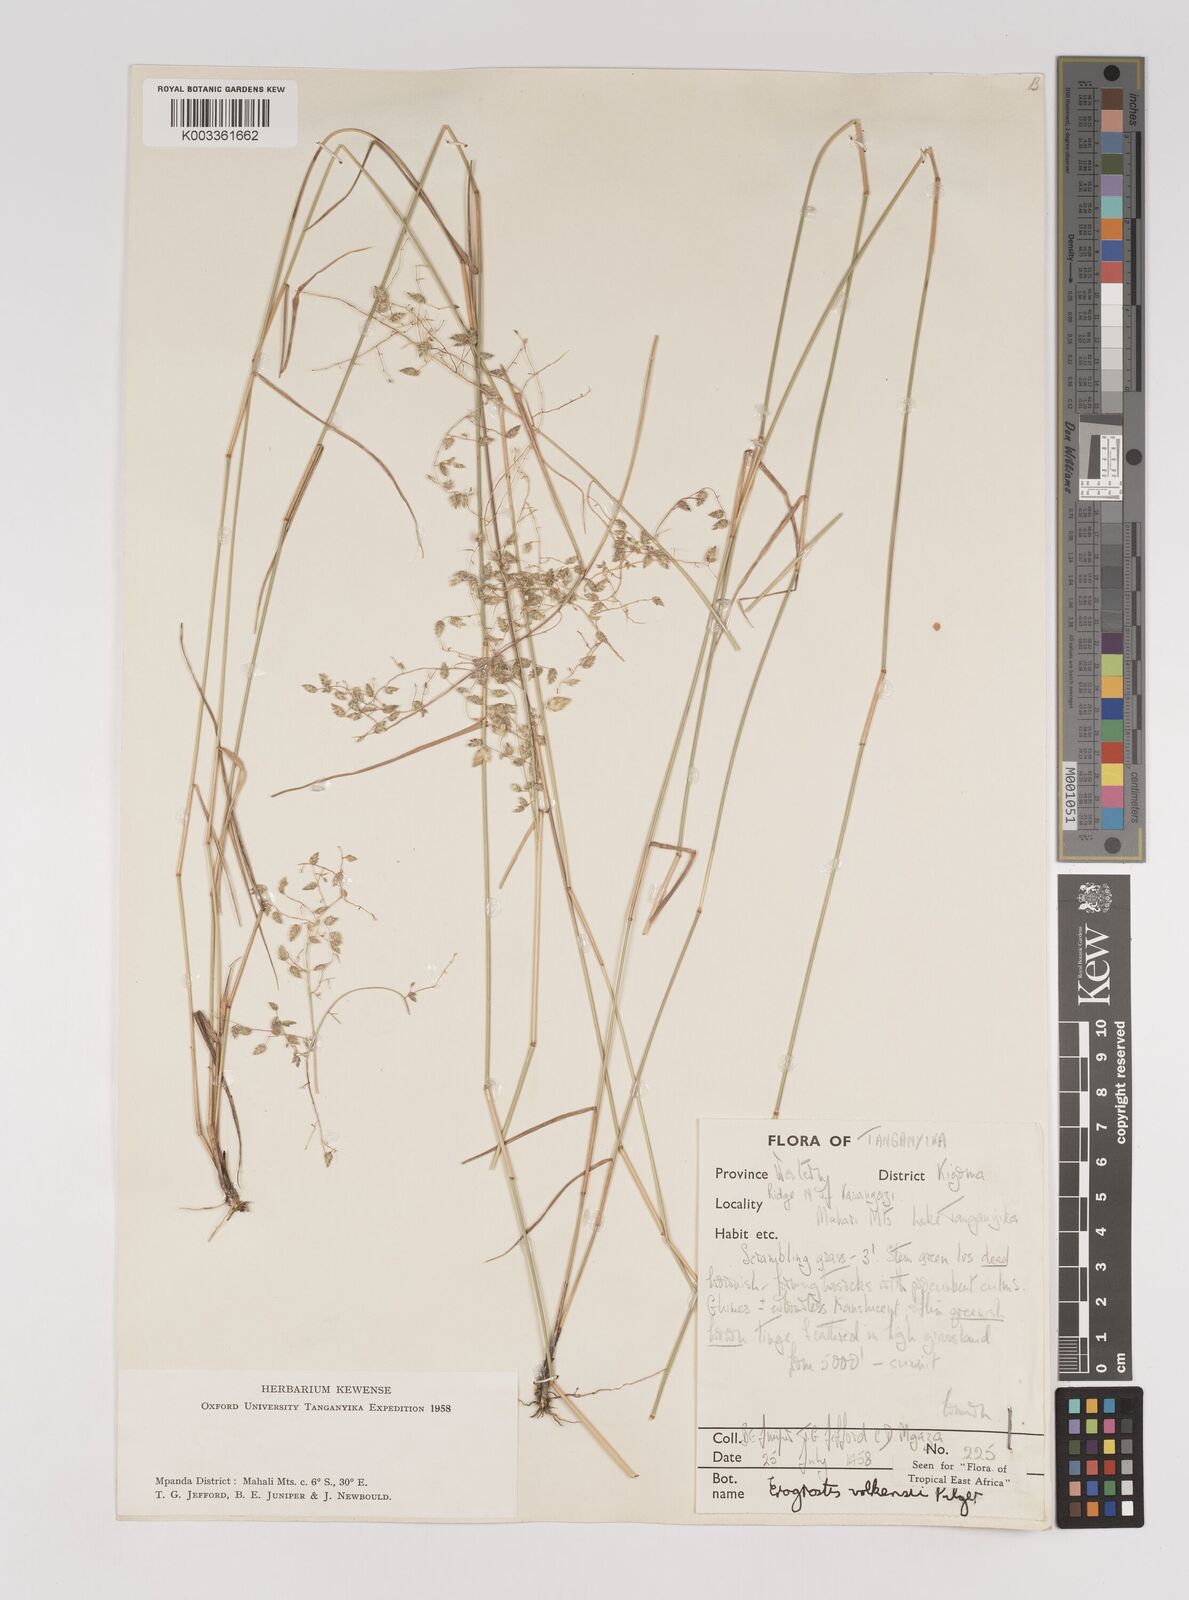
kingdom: Plantae
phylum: Tracheophyta
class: Liliopsida
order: Poales
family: Poaceae
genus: Eragrostis
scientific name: Eragrostis volkensii
